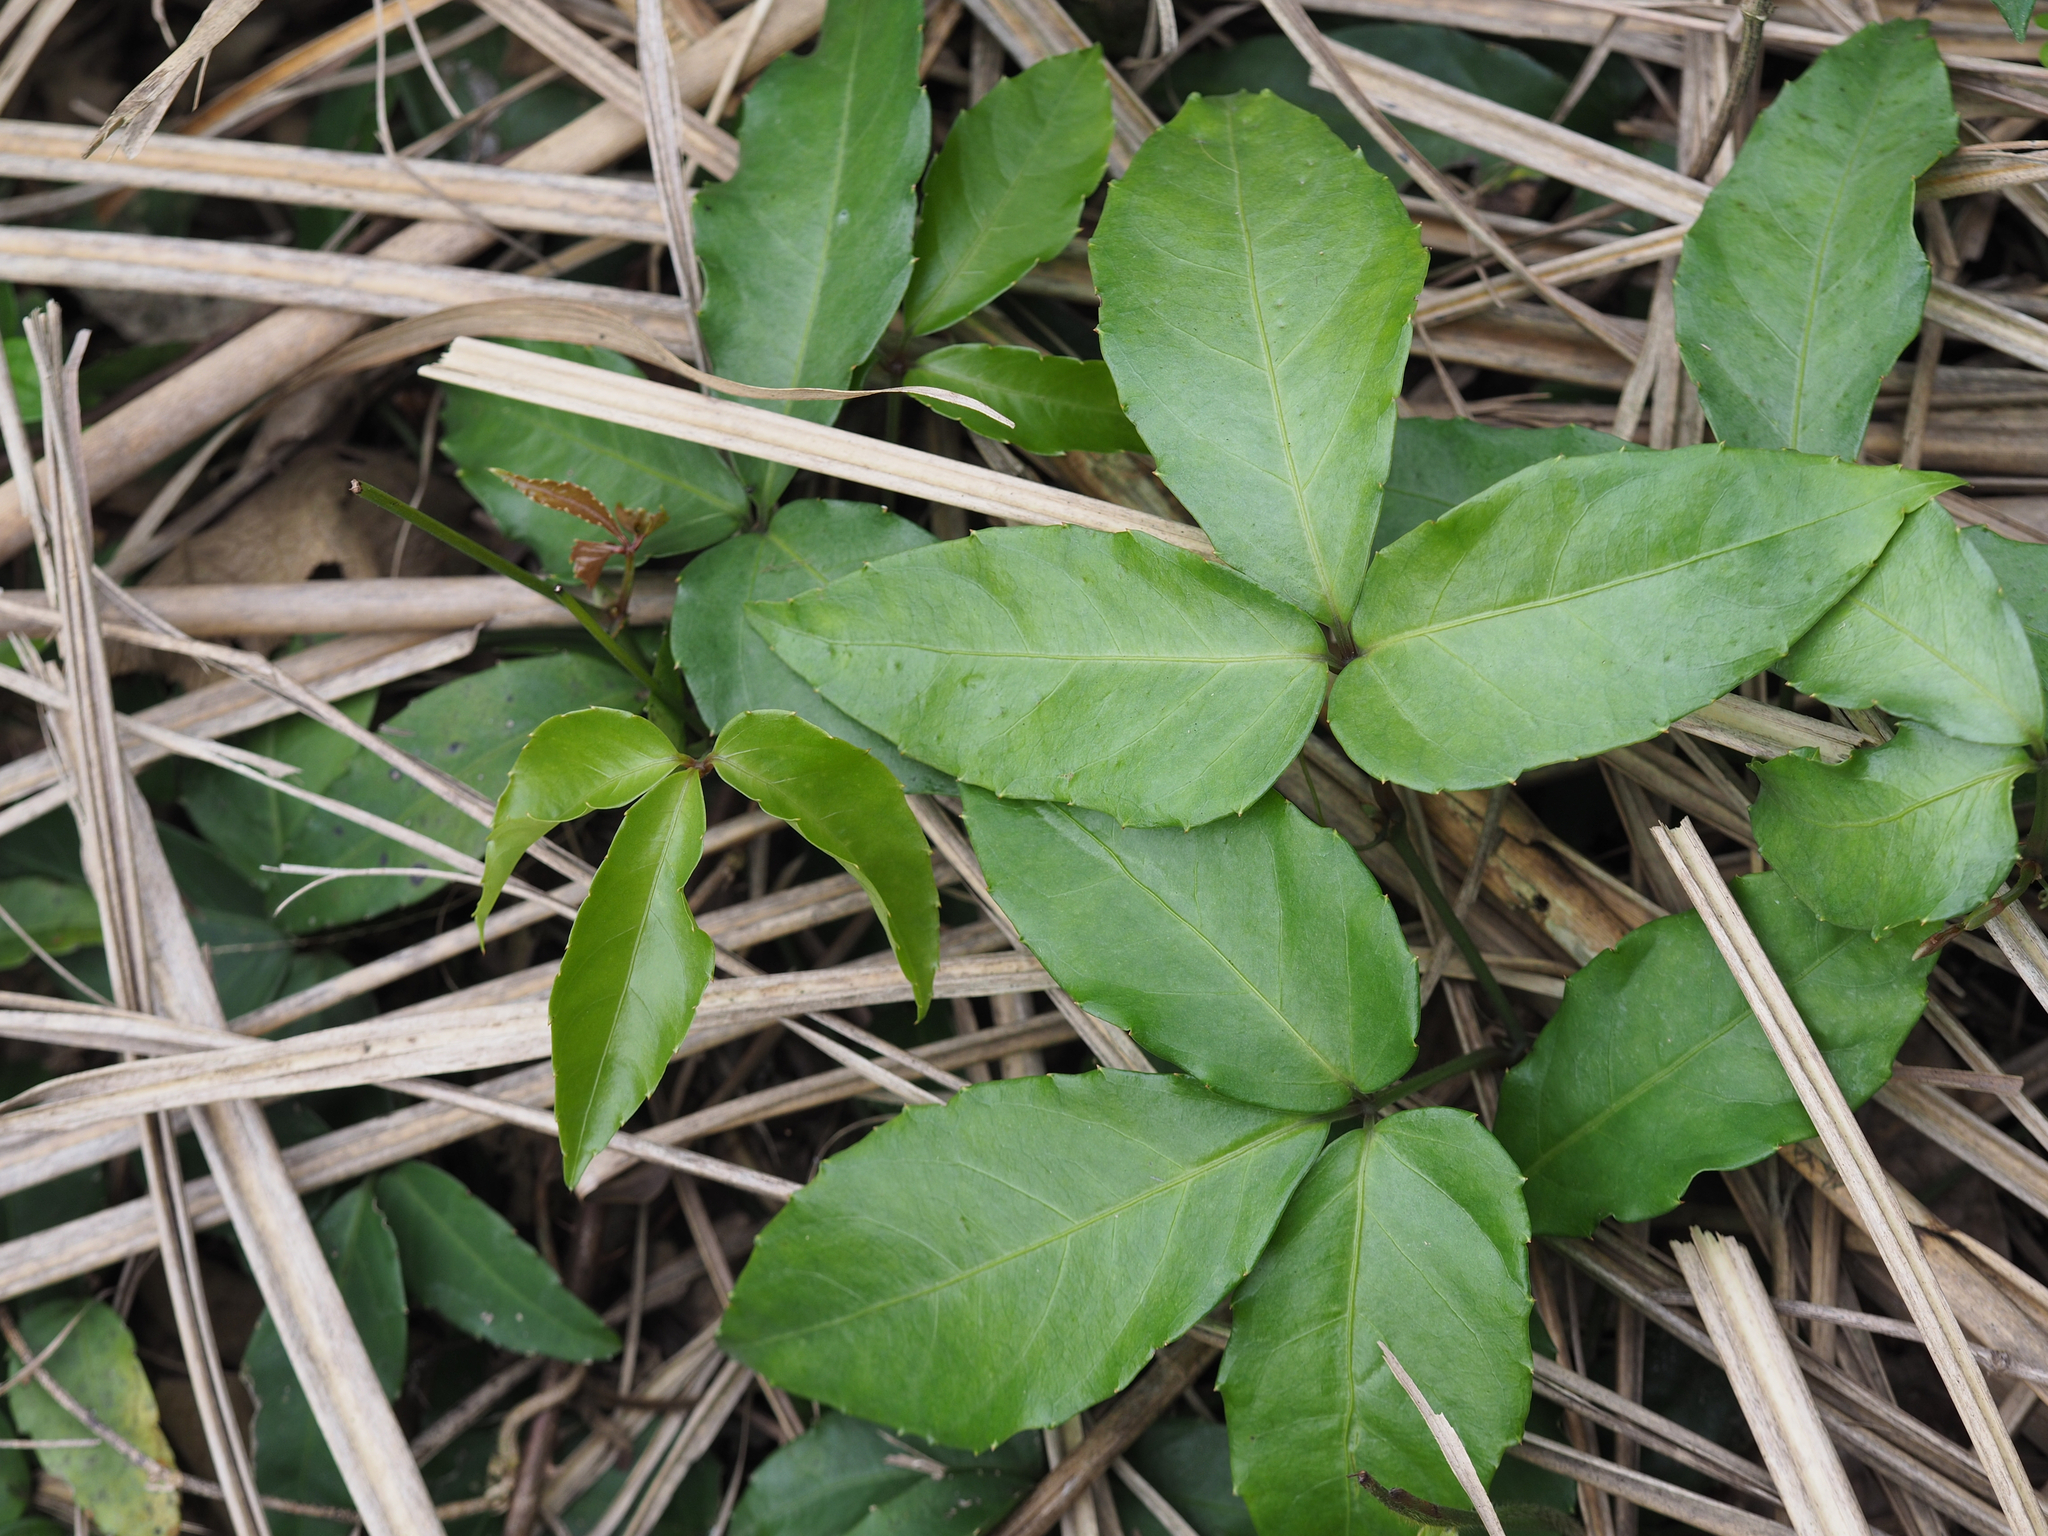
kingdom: Plantae
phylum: Tracheophyta
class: Magnoliopsida
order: Vitales
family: Vitaceae
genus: Tetrastigma
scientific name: Tetrastigma dentatum
